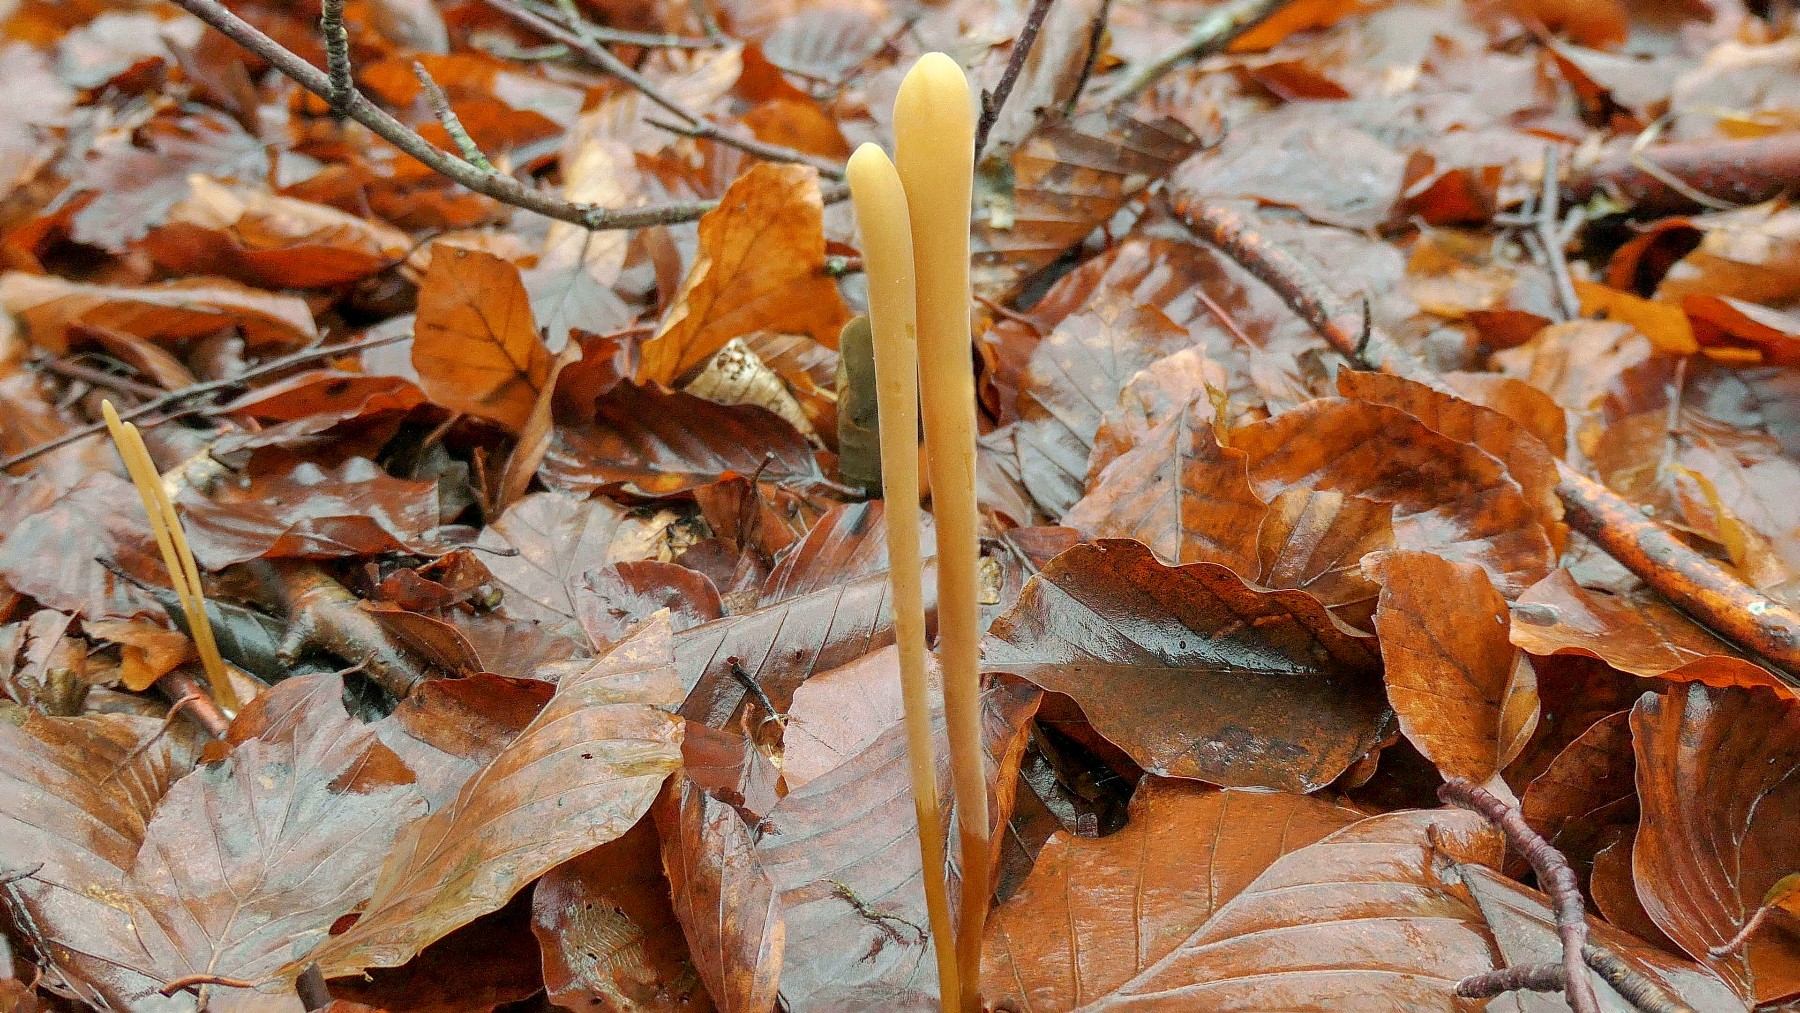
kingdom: Fungi
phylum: Basidiomycota
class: Agaricomycetes
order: Agaricales
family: Typhulaceae
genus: Typhula
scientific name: Typhula fistulosa
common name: pibet rørkølle
